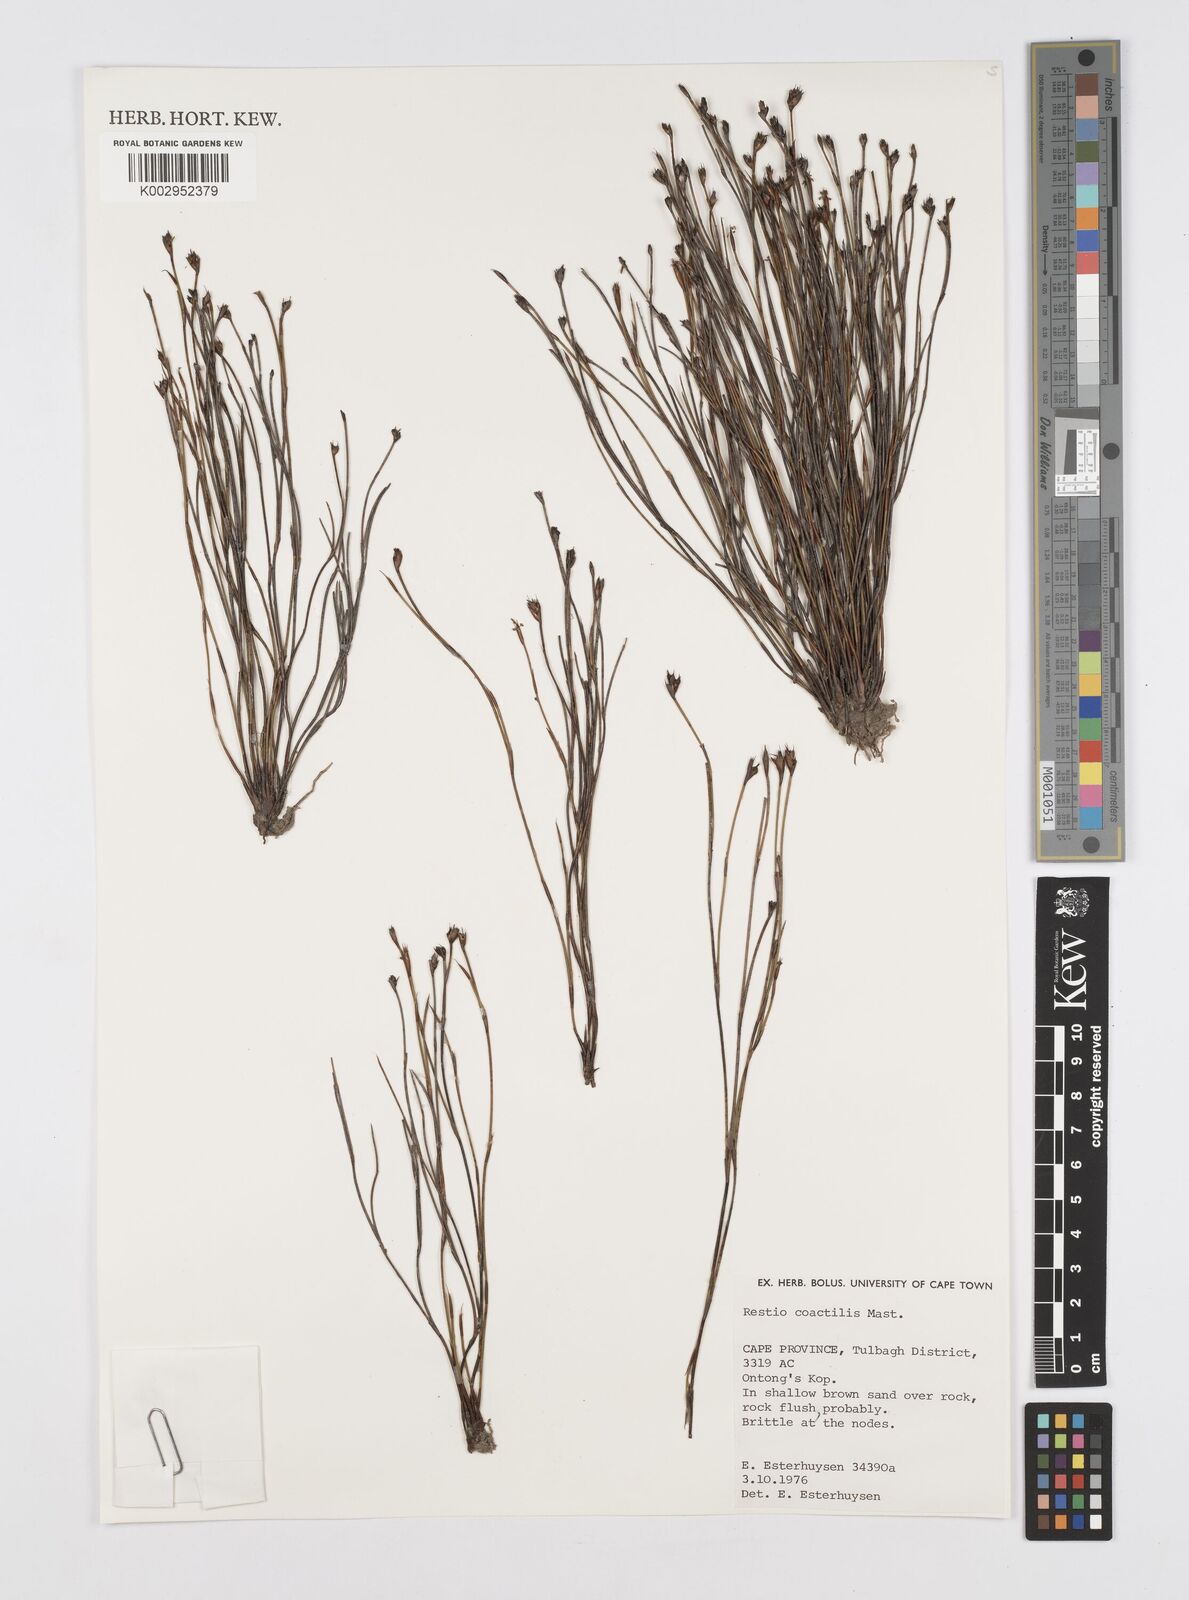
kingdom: Plantae
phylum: Tracheophyta
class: Liliopsida
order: Poales
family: Restionaceae
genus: Restio
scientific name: Restio coactilis
